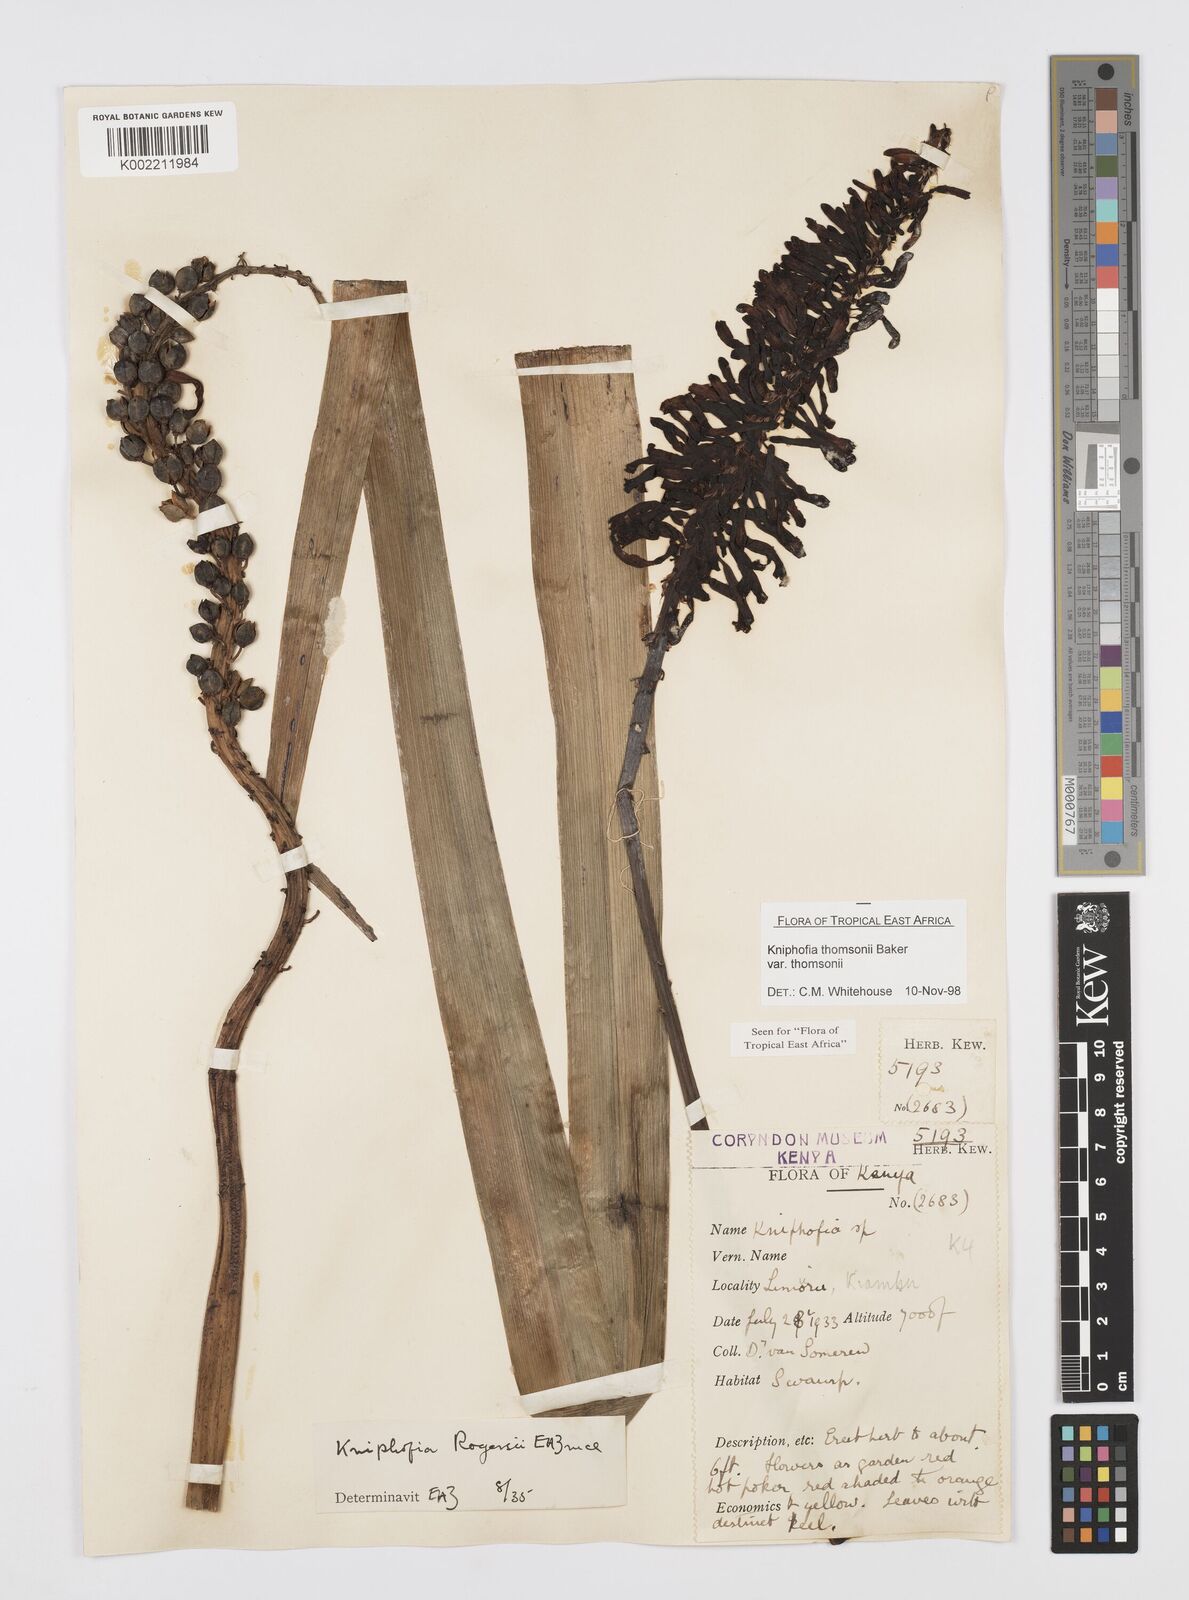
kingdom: Plantae
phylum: Tracheophyta
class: Liliopsida
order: Asparagales
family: Asphodelaceae
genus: Kniphofia
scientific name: Kniphofia thomsonii
